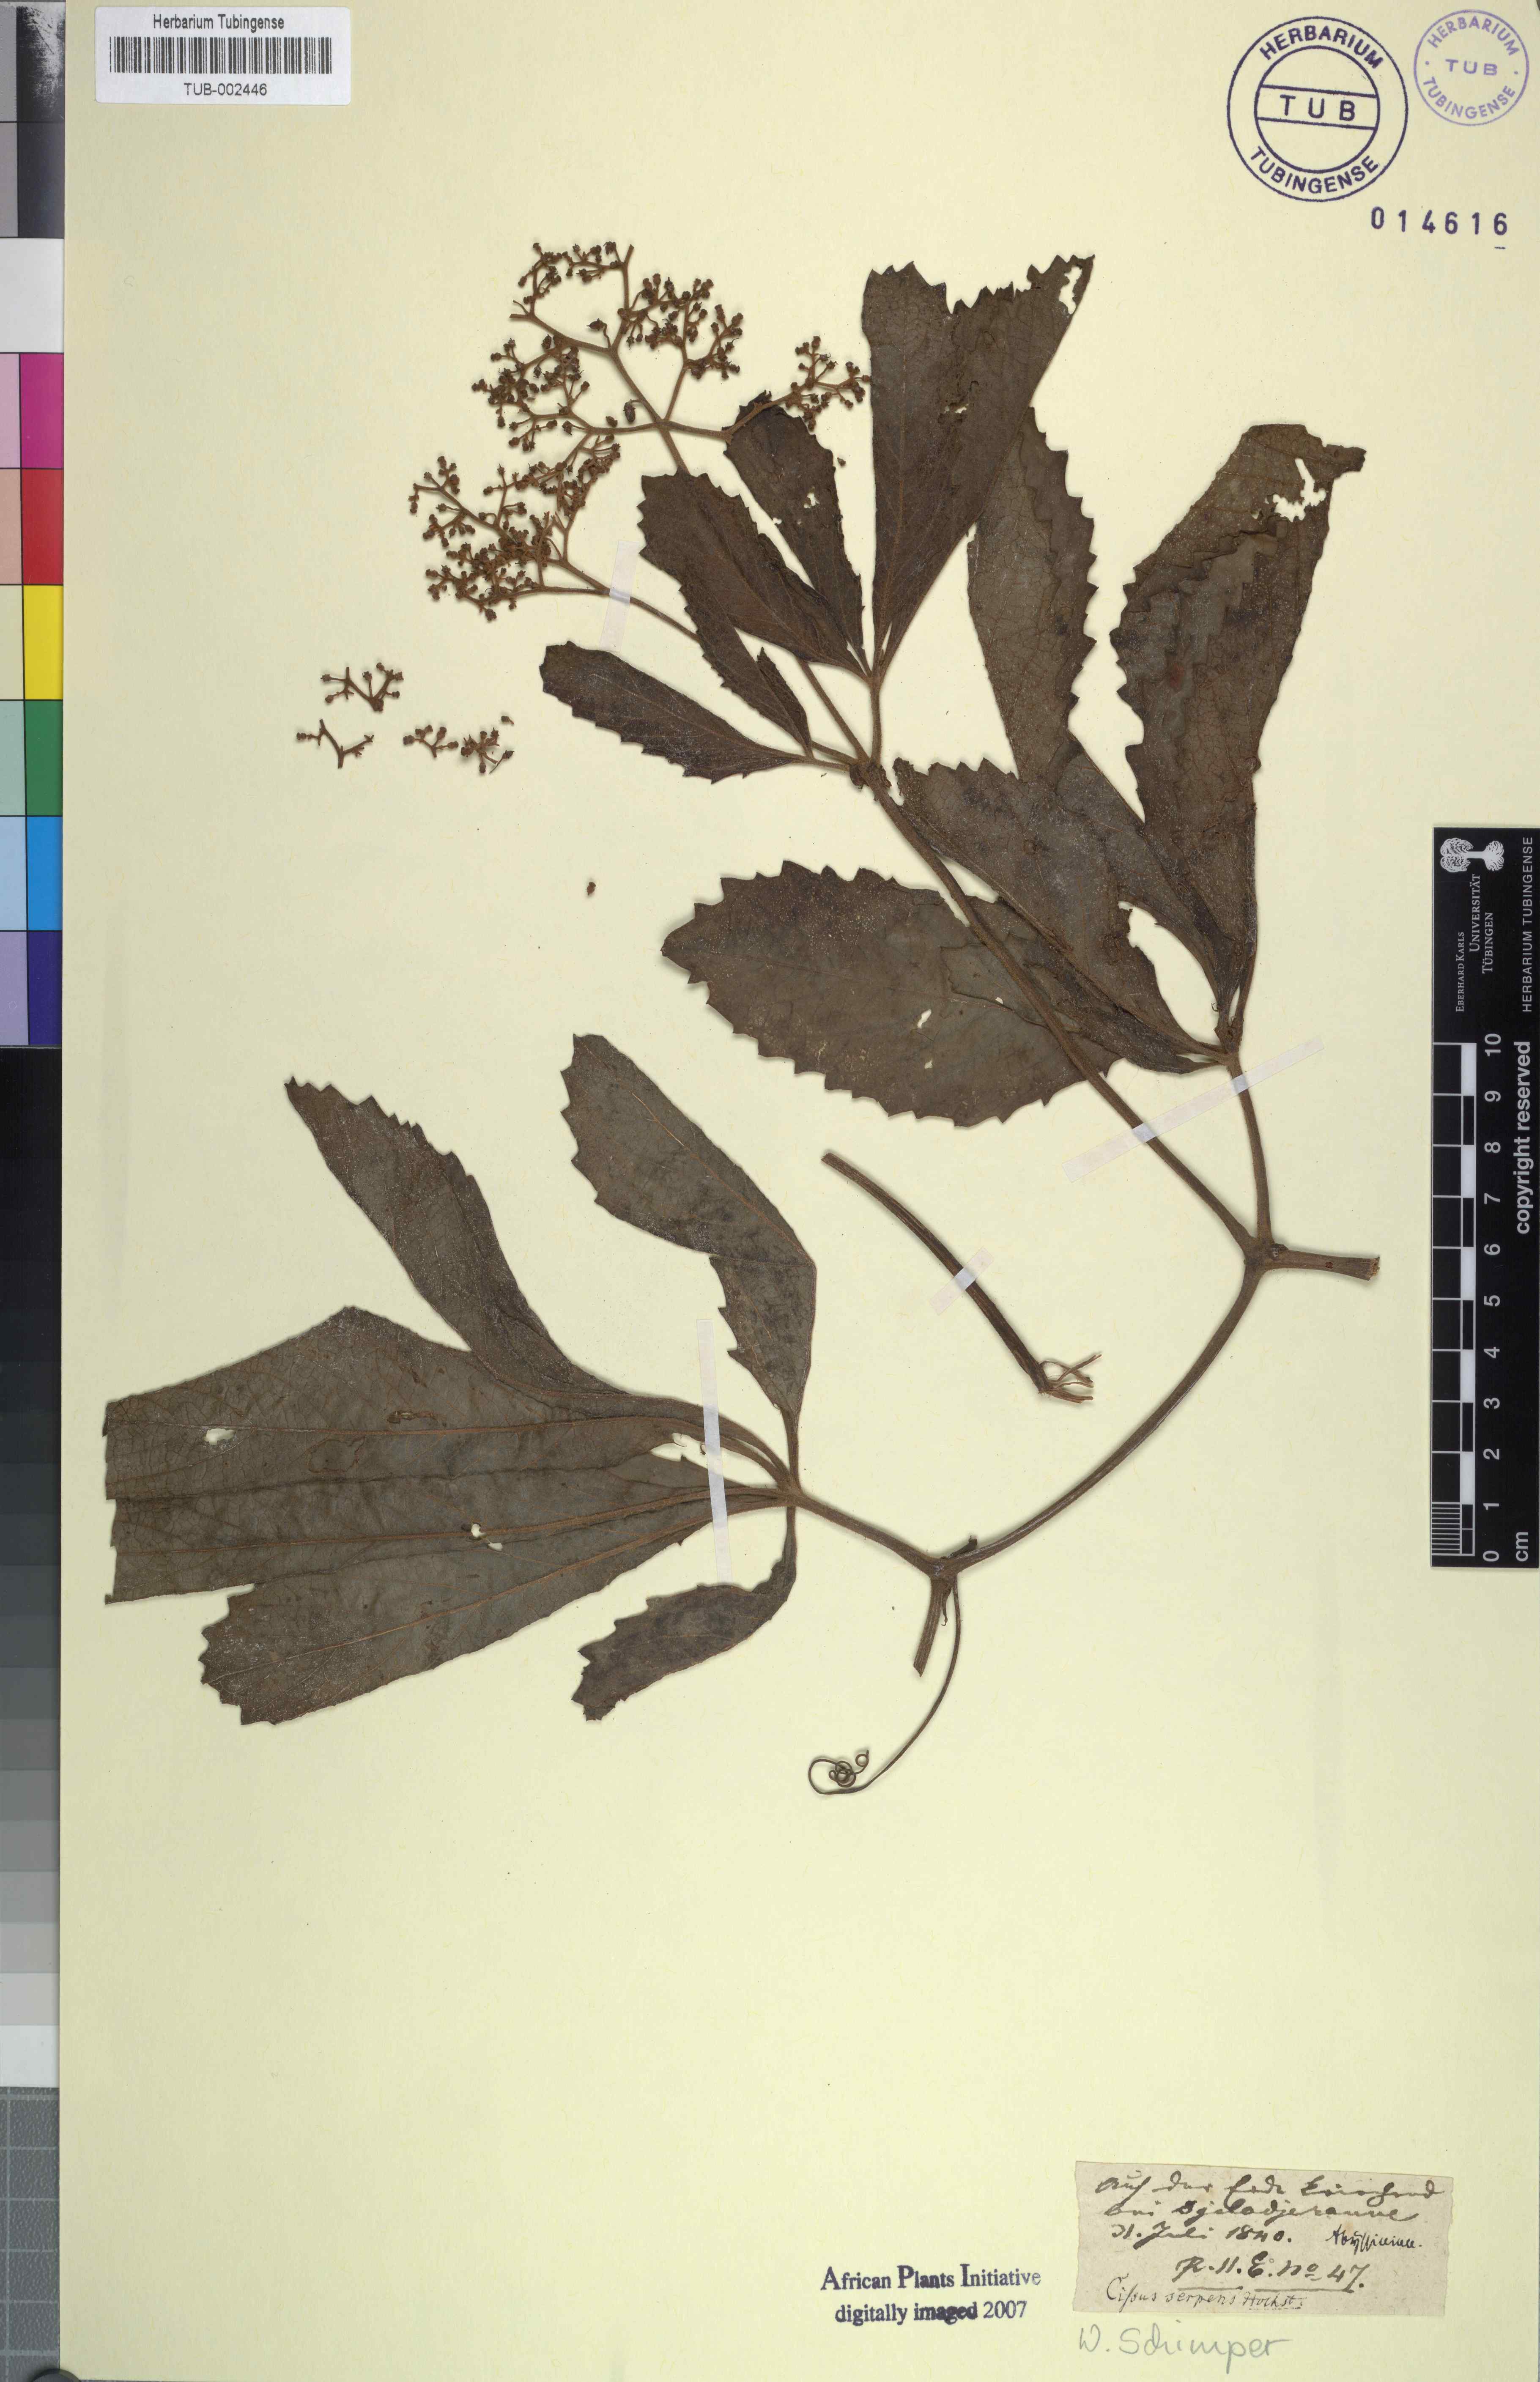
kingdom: Plantae
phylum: Tracheophyta
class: Magnoliopsida
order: Vitales
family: Vitaceae
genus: Cyphostemma
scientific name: Cyphostemma serpens
